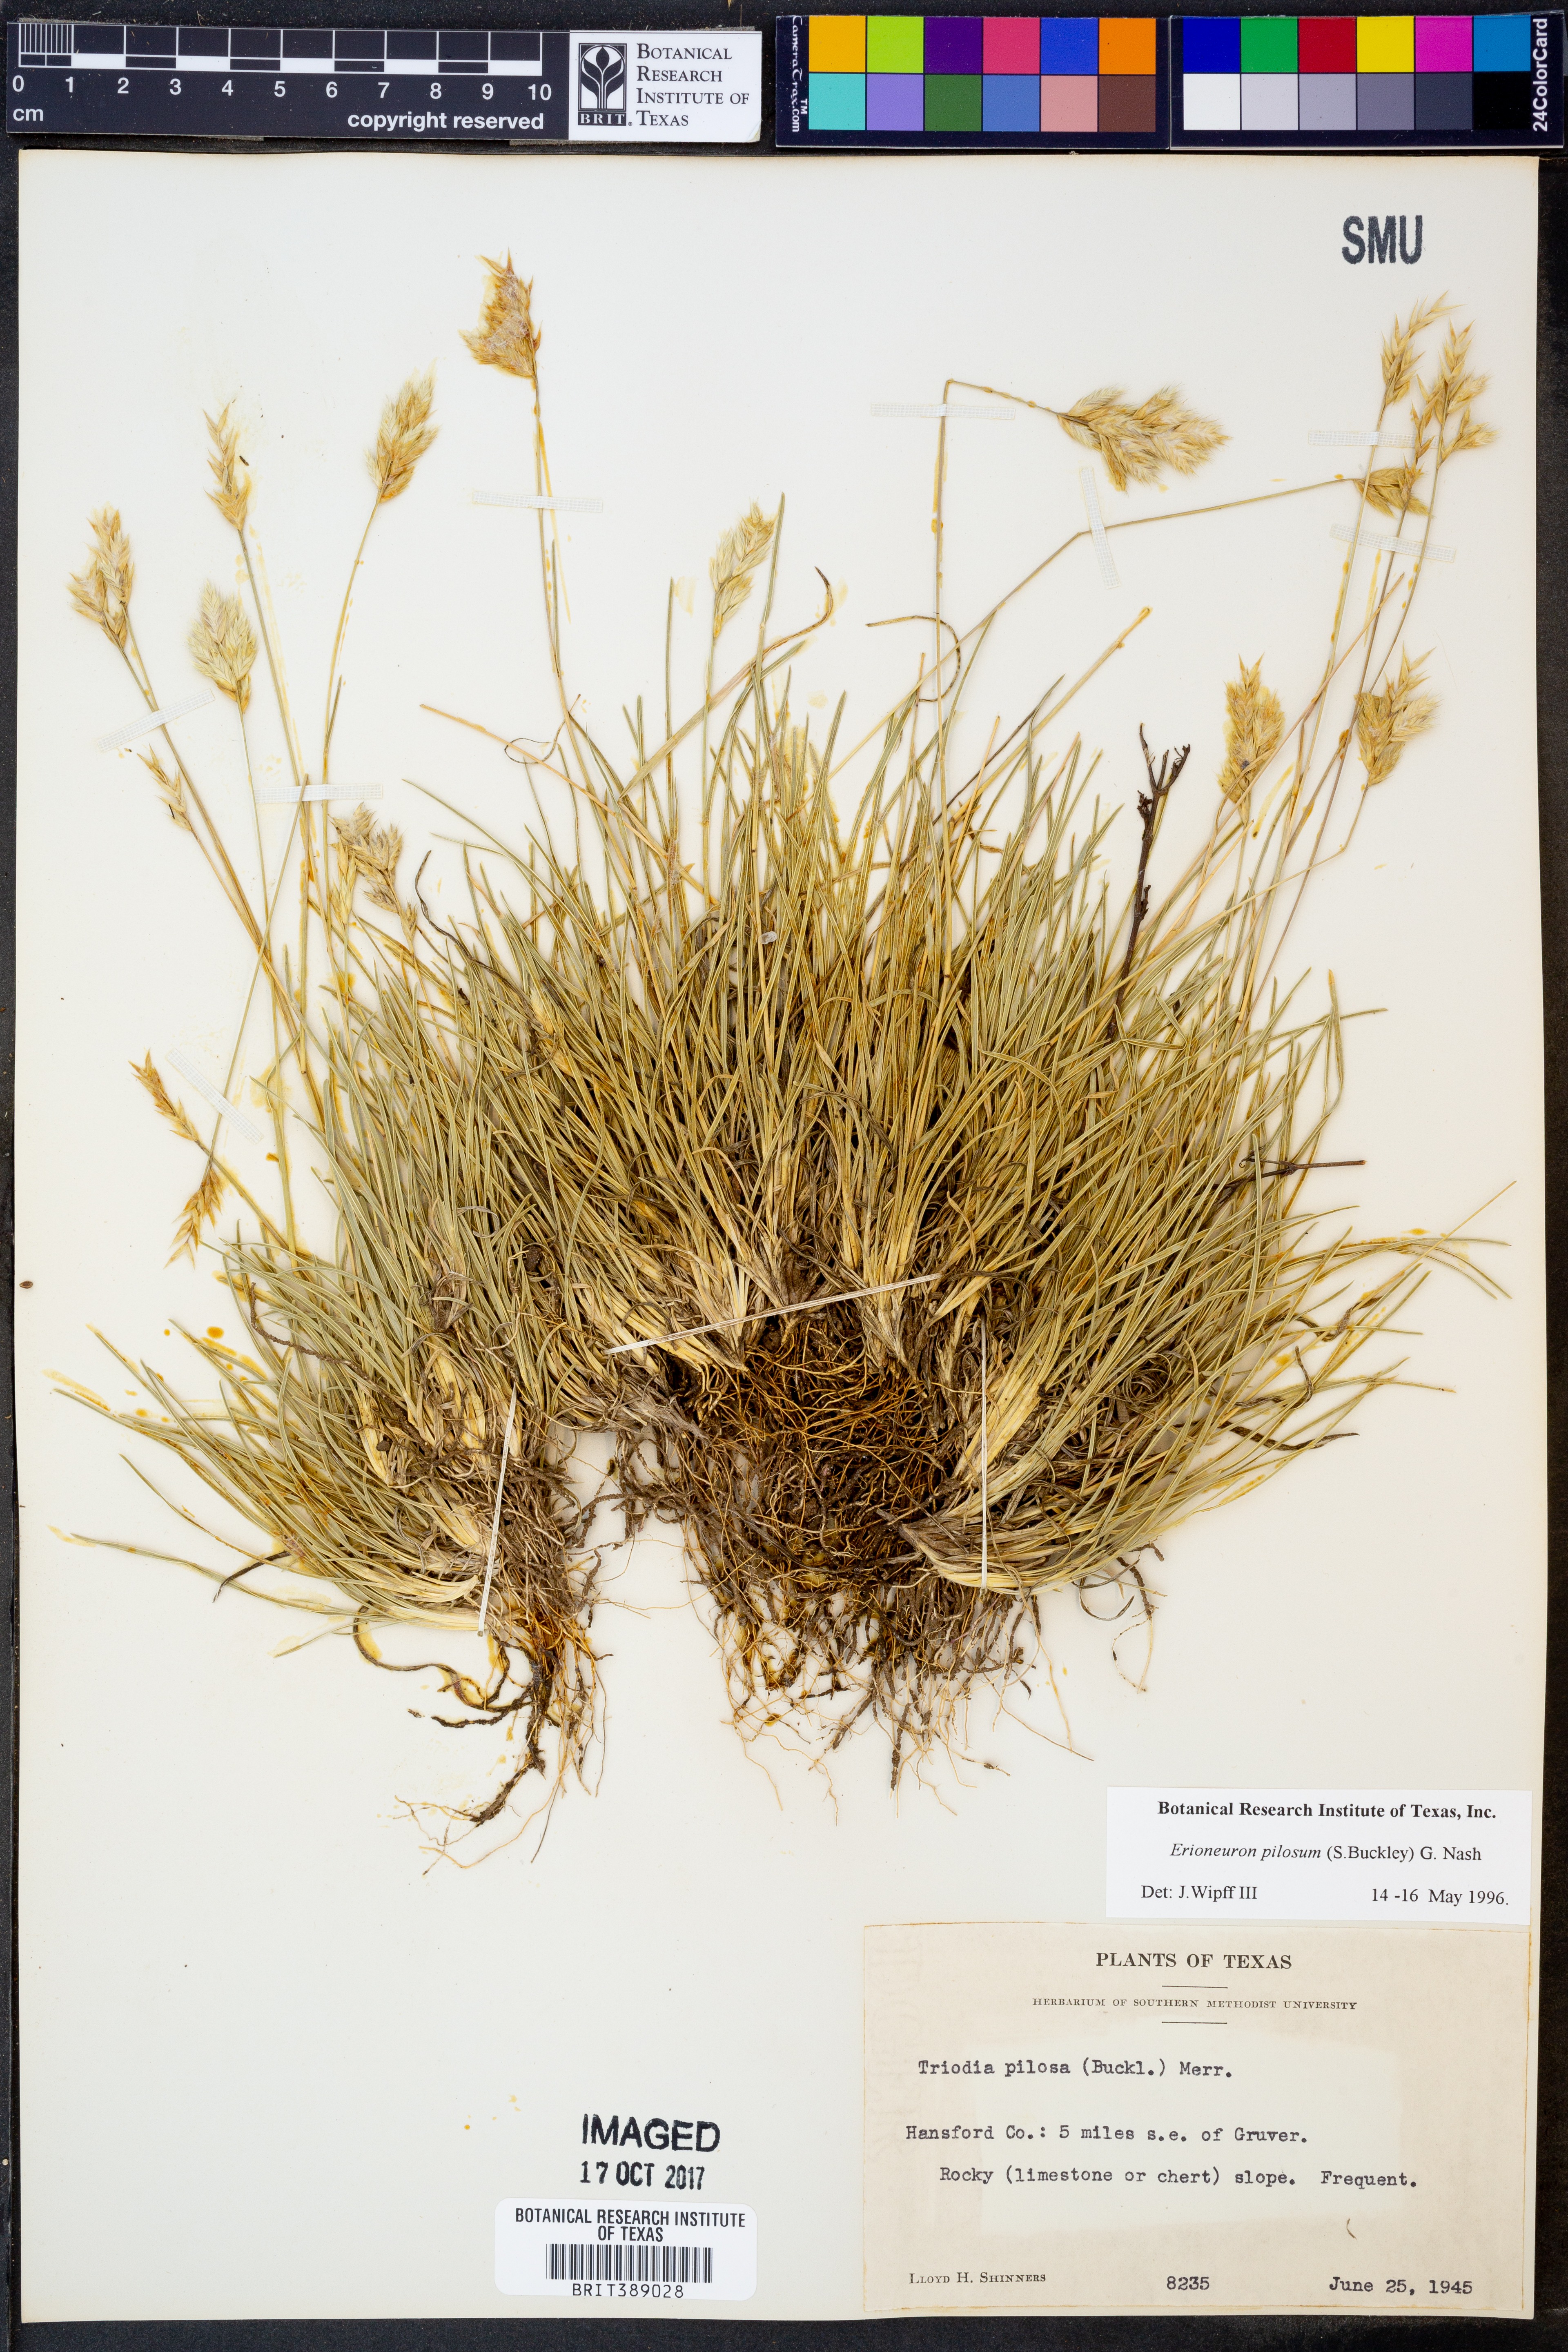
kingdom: Plantae
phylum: Tracheophyta
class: Liliopsida
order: Poales
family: Poaceae
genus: Erioneuron
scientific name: Erioneuron pilosum
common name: Hairy woolly grass
